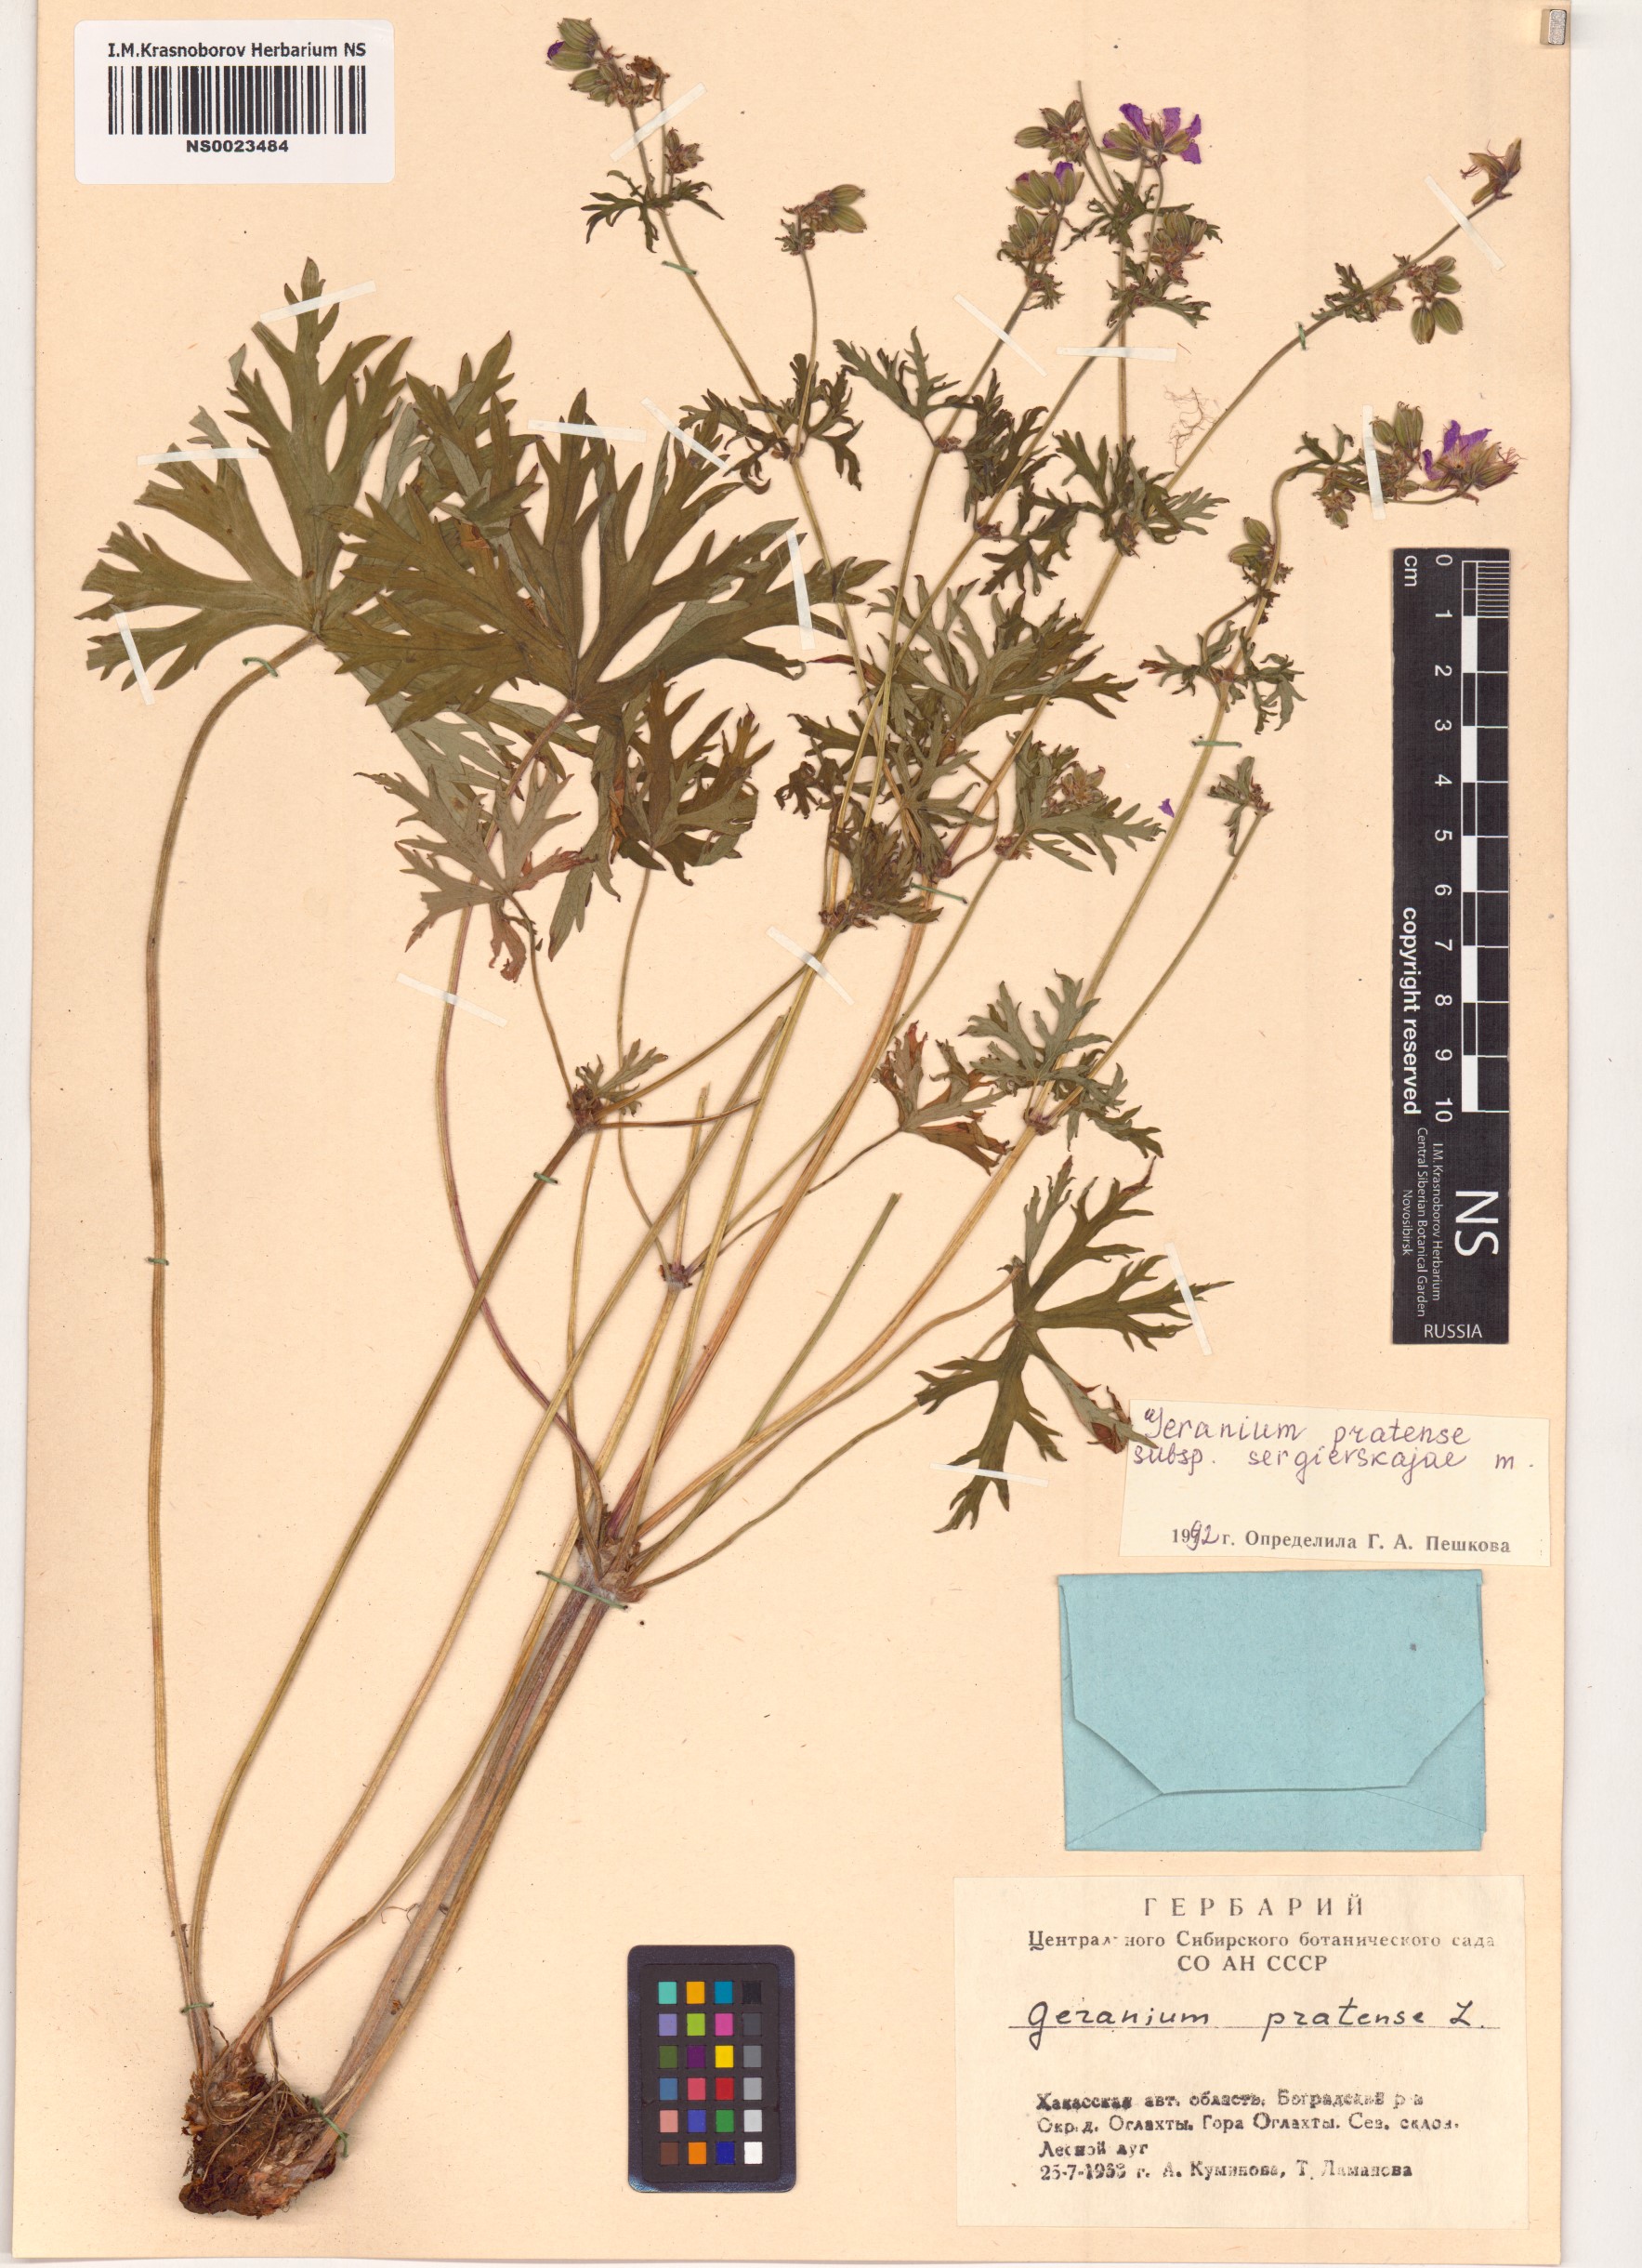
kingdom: Plantae
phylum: Tracheophyta
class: Magnoliopsida
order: Geraniales
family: Geraniaceae
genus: Geranium
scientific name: Geranium pratense
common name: Meadow crane's-bill
